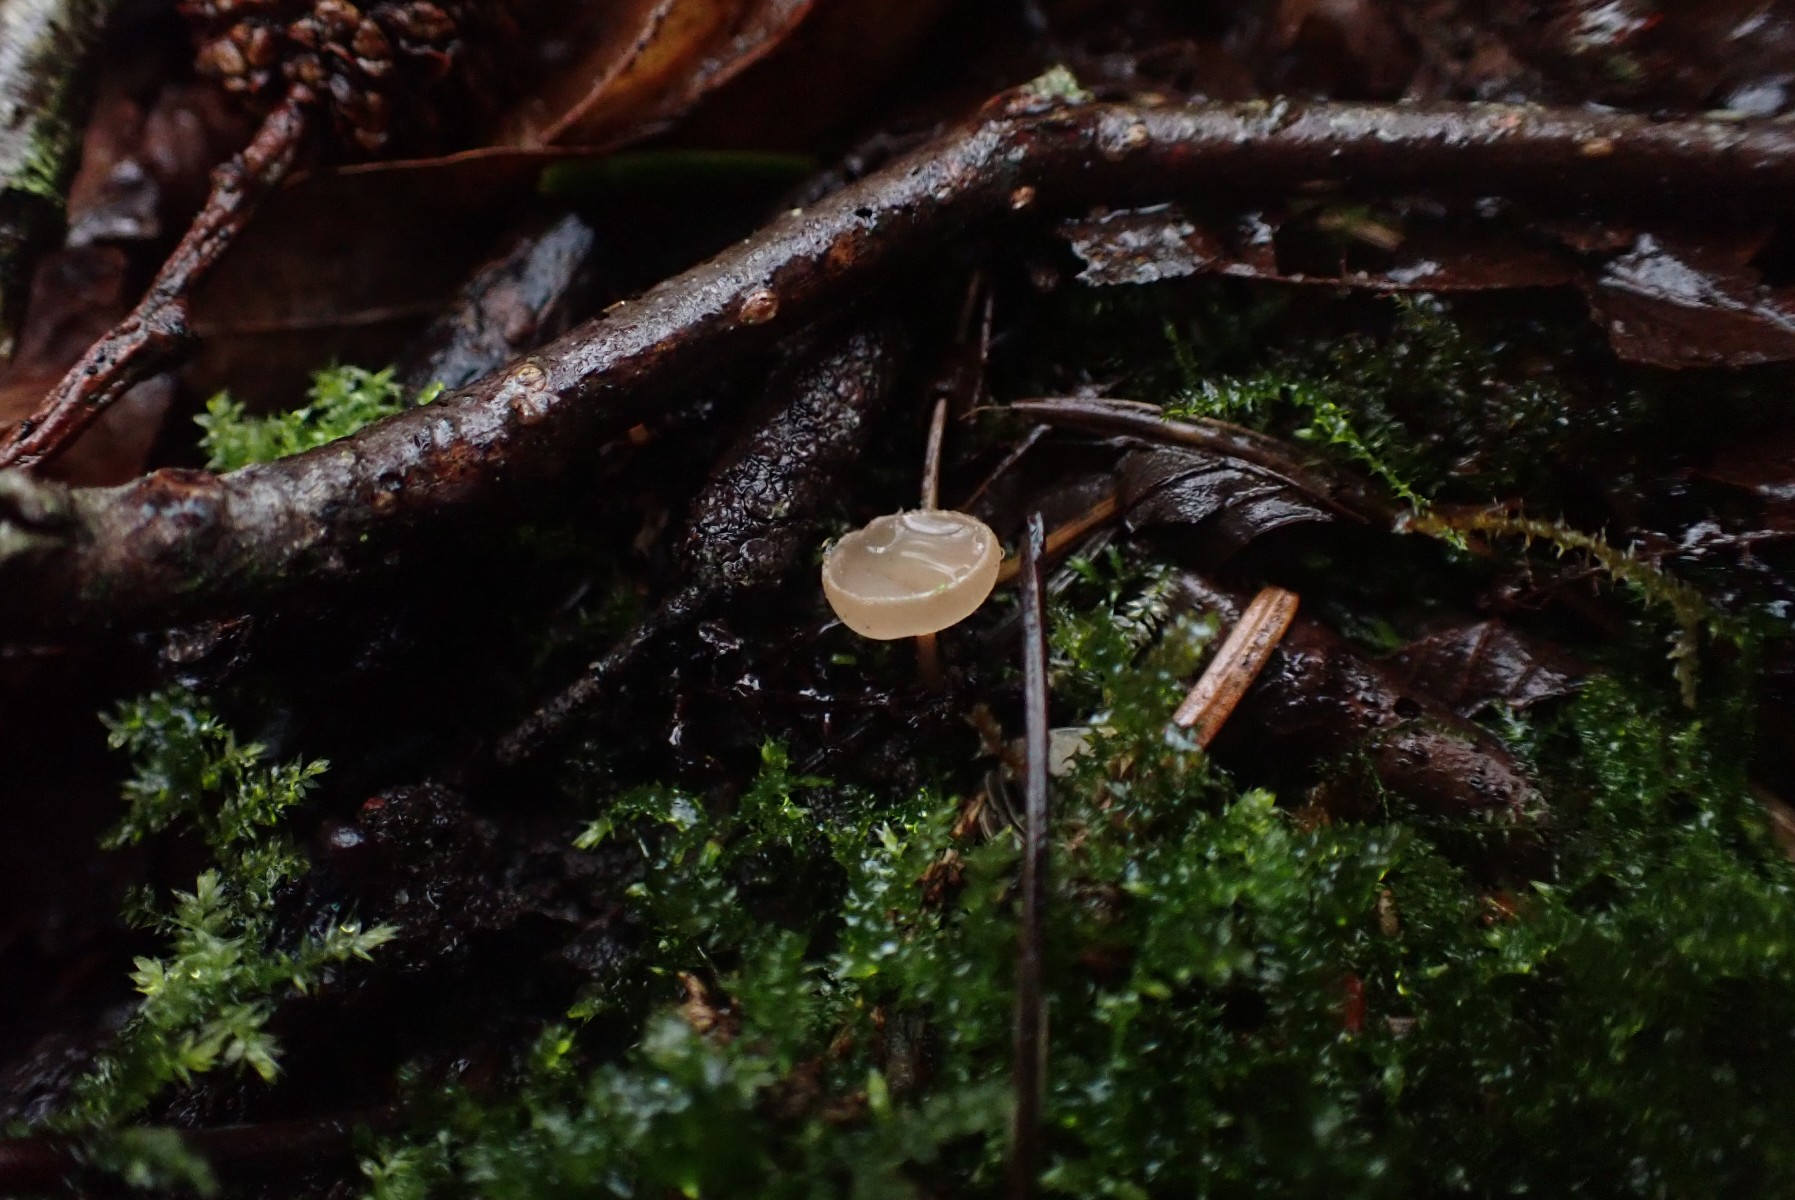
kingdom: Fungi
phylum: Ascomycota
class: Leotiomycetes
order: Helotiales
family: Sclerotiniaceae
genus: Ciboria
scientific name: Ciboria amentacea
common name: ellerakle-knoldskive
